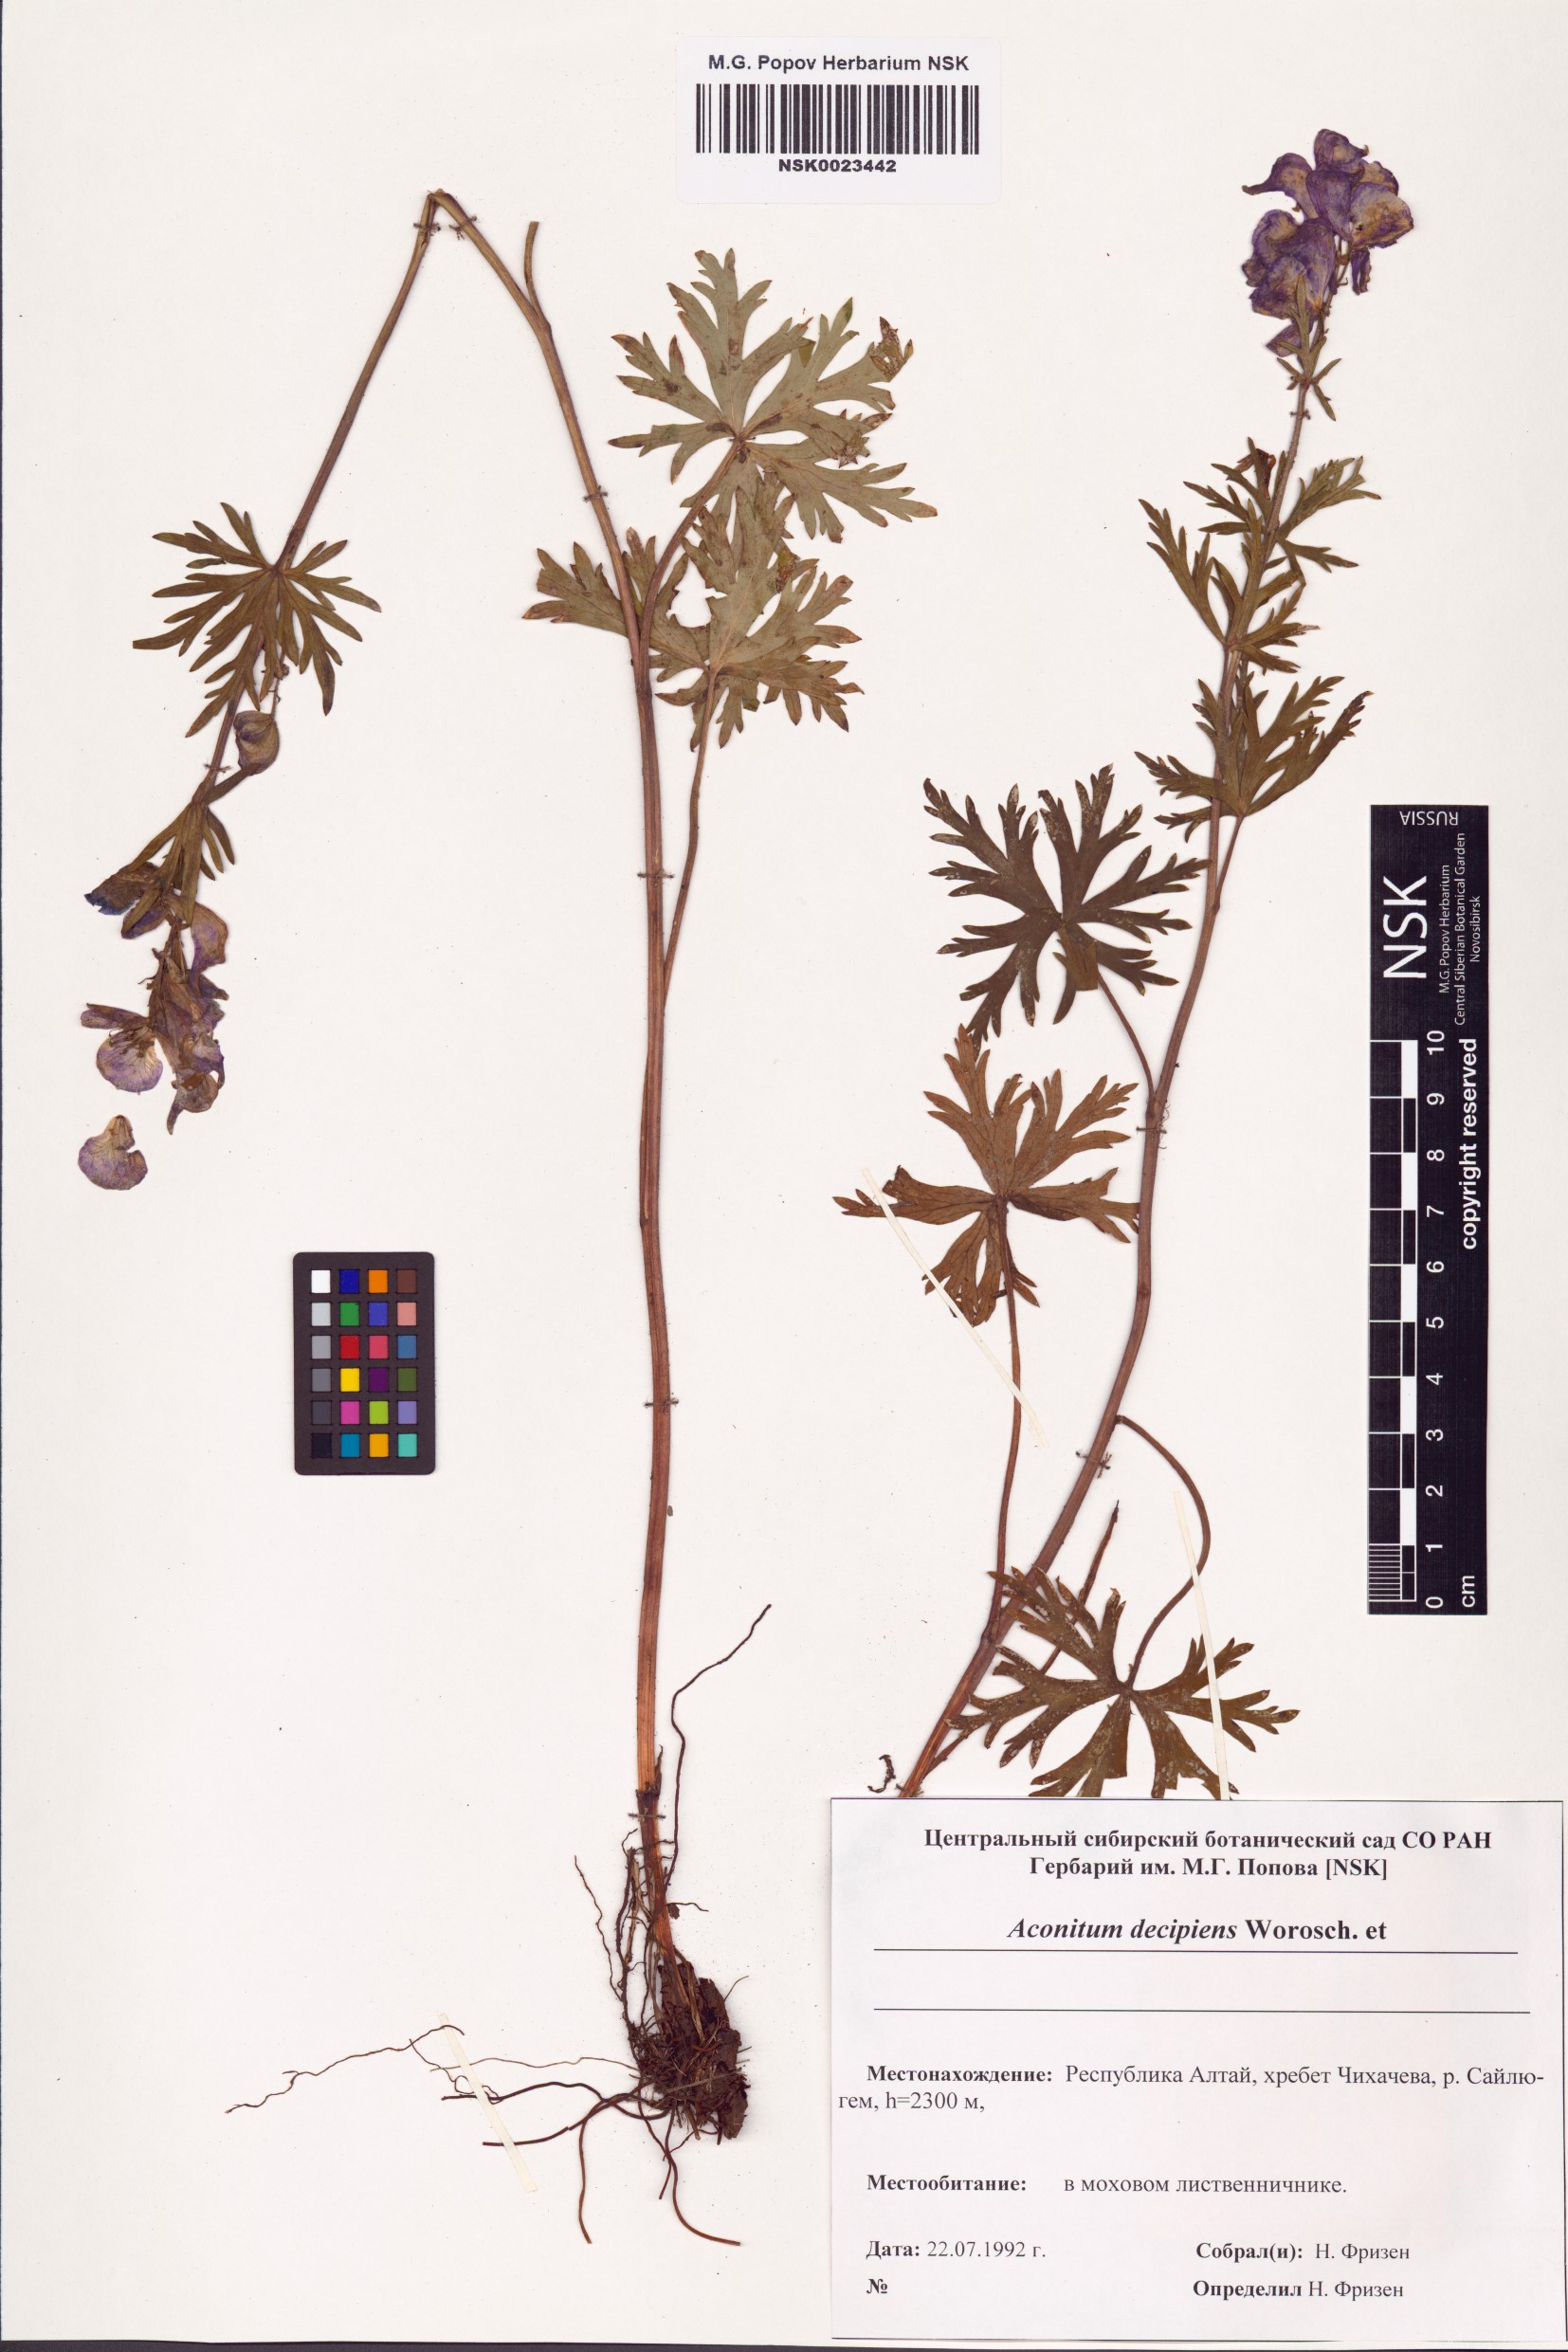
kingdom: Plantae
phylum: Tracheophyta
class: Magnoliopsida
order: Ranunculales
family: Ranunculaceae
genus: Aconitum
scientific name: Aconitum decipiens
